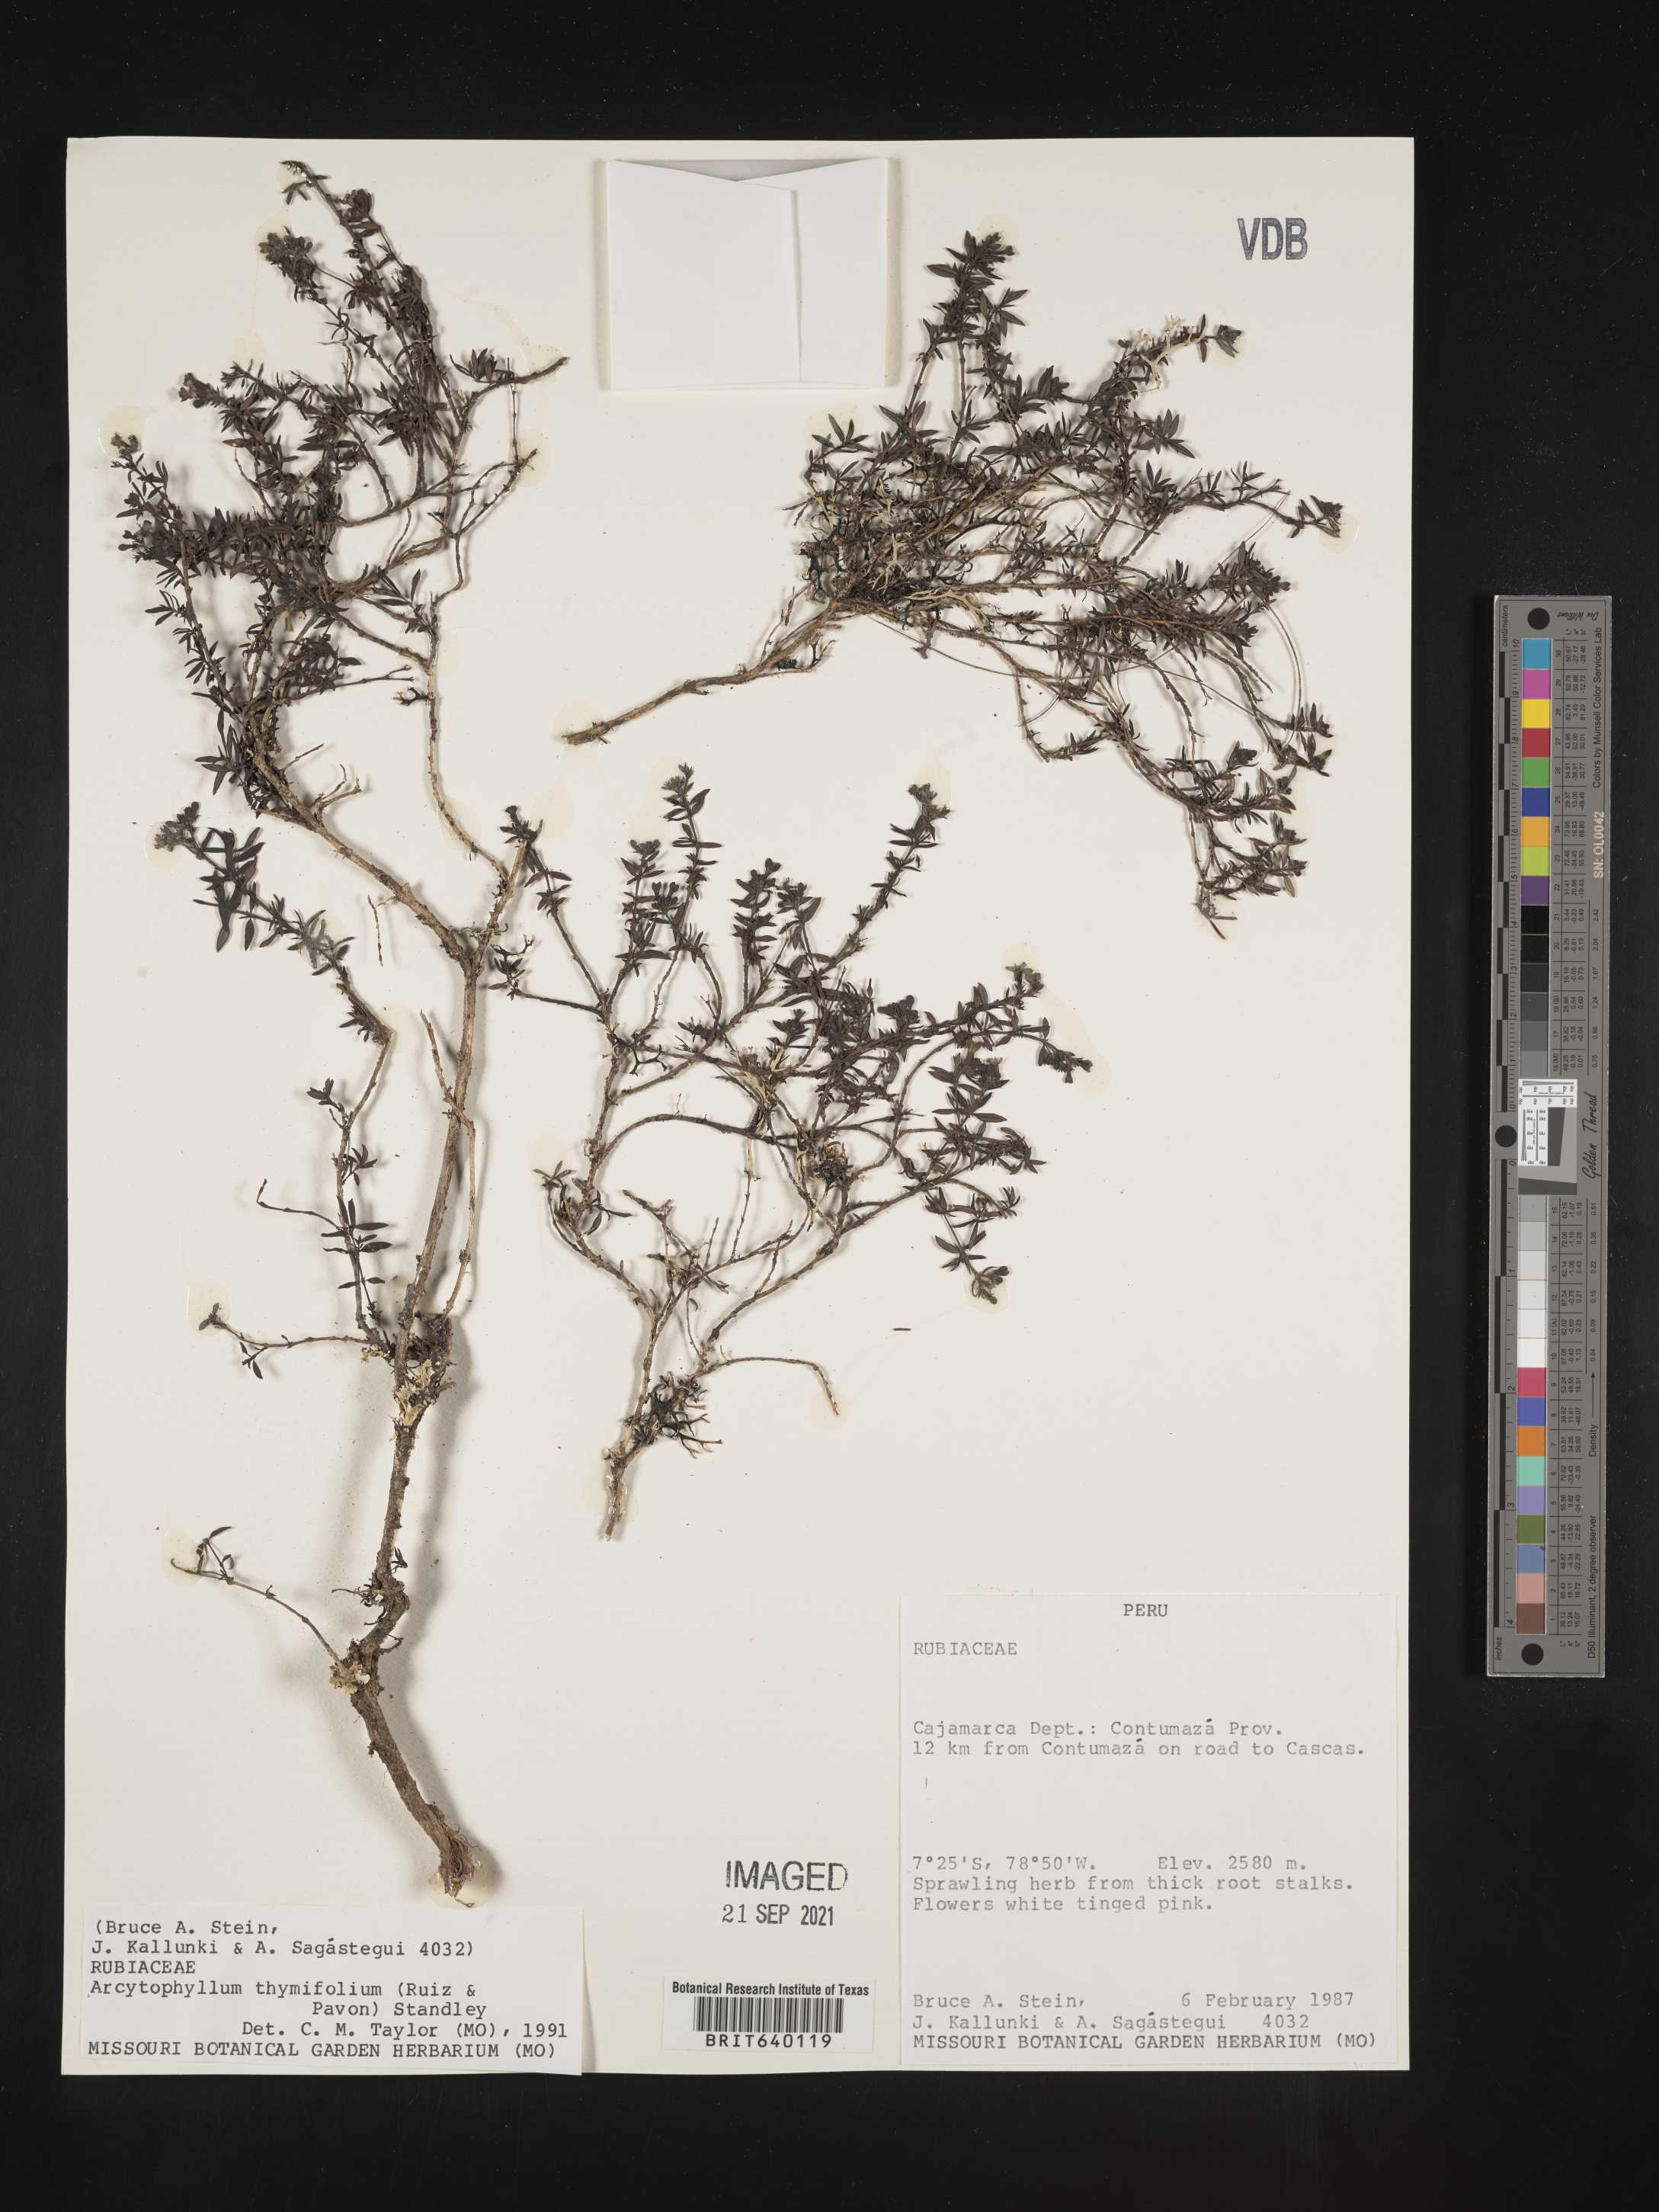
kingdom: Plantae
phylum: Tracheophyta
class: Magnoliopsida
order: Gentianales
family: Rubiaceae
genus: Arcytophyllum
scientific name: Arcytophyllum
